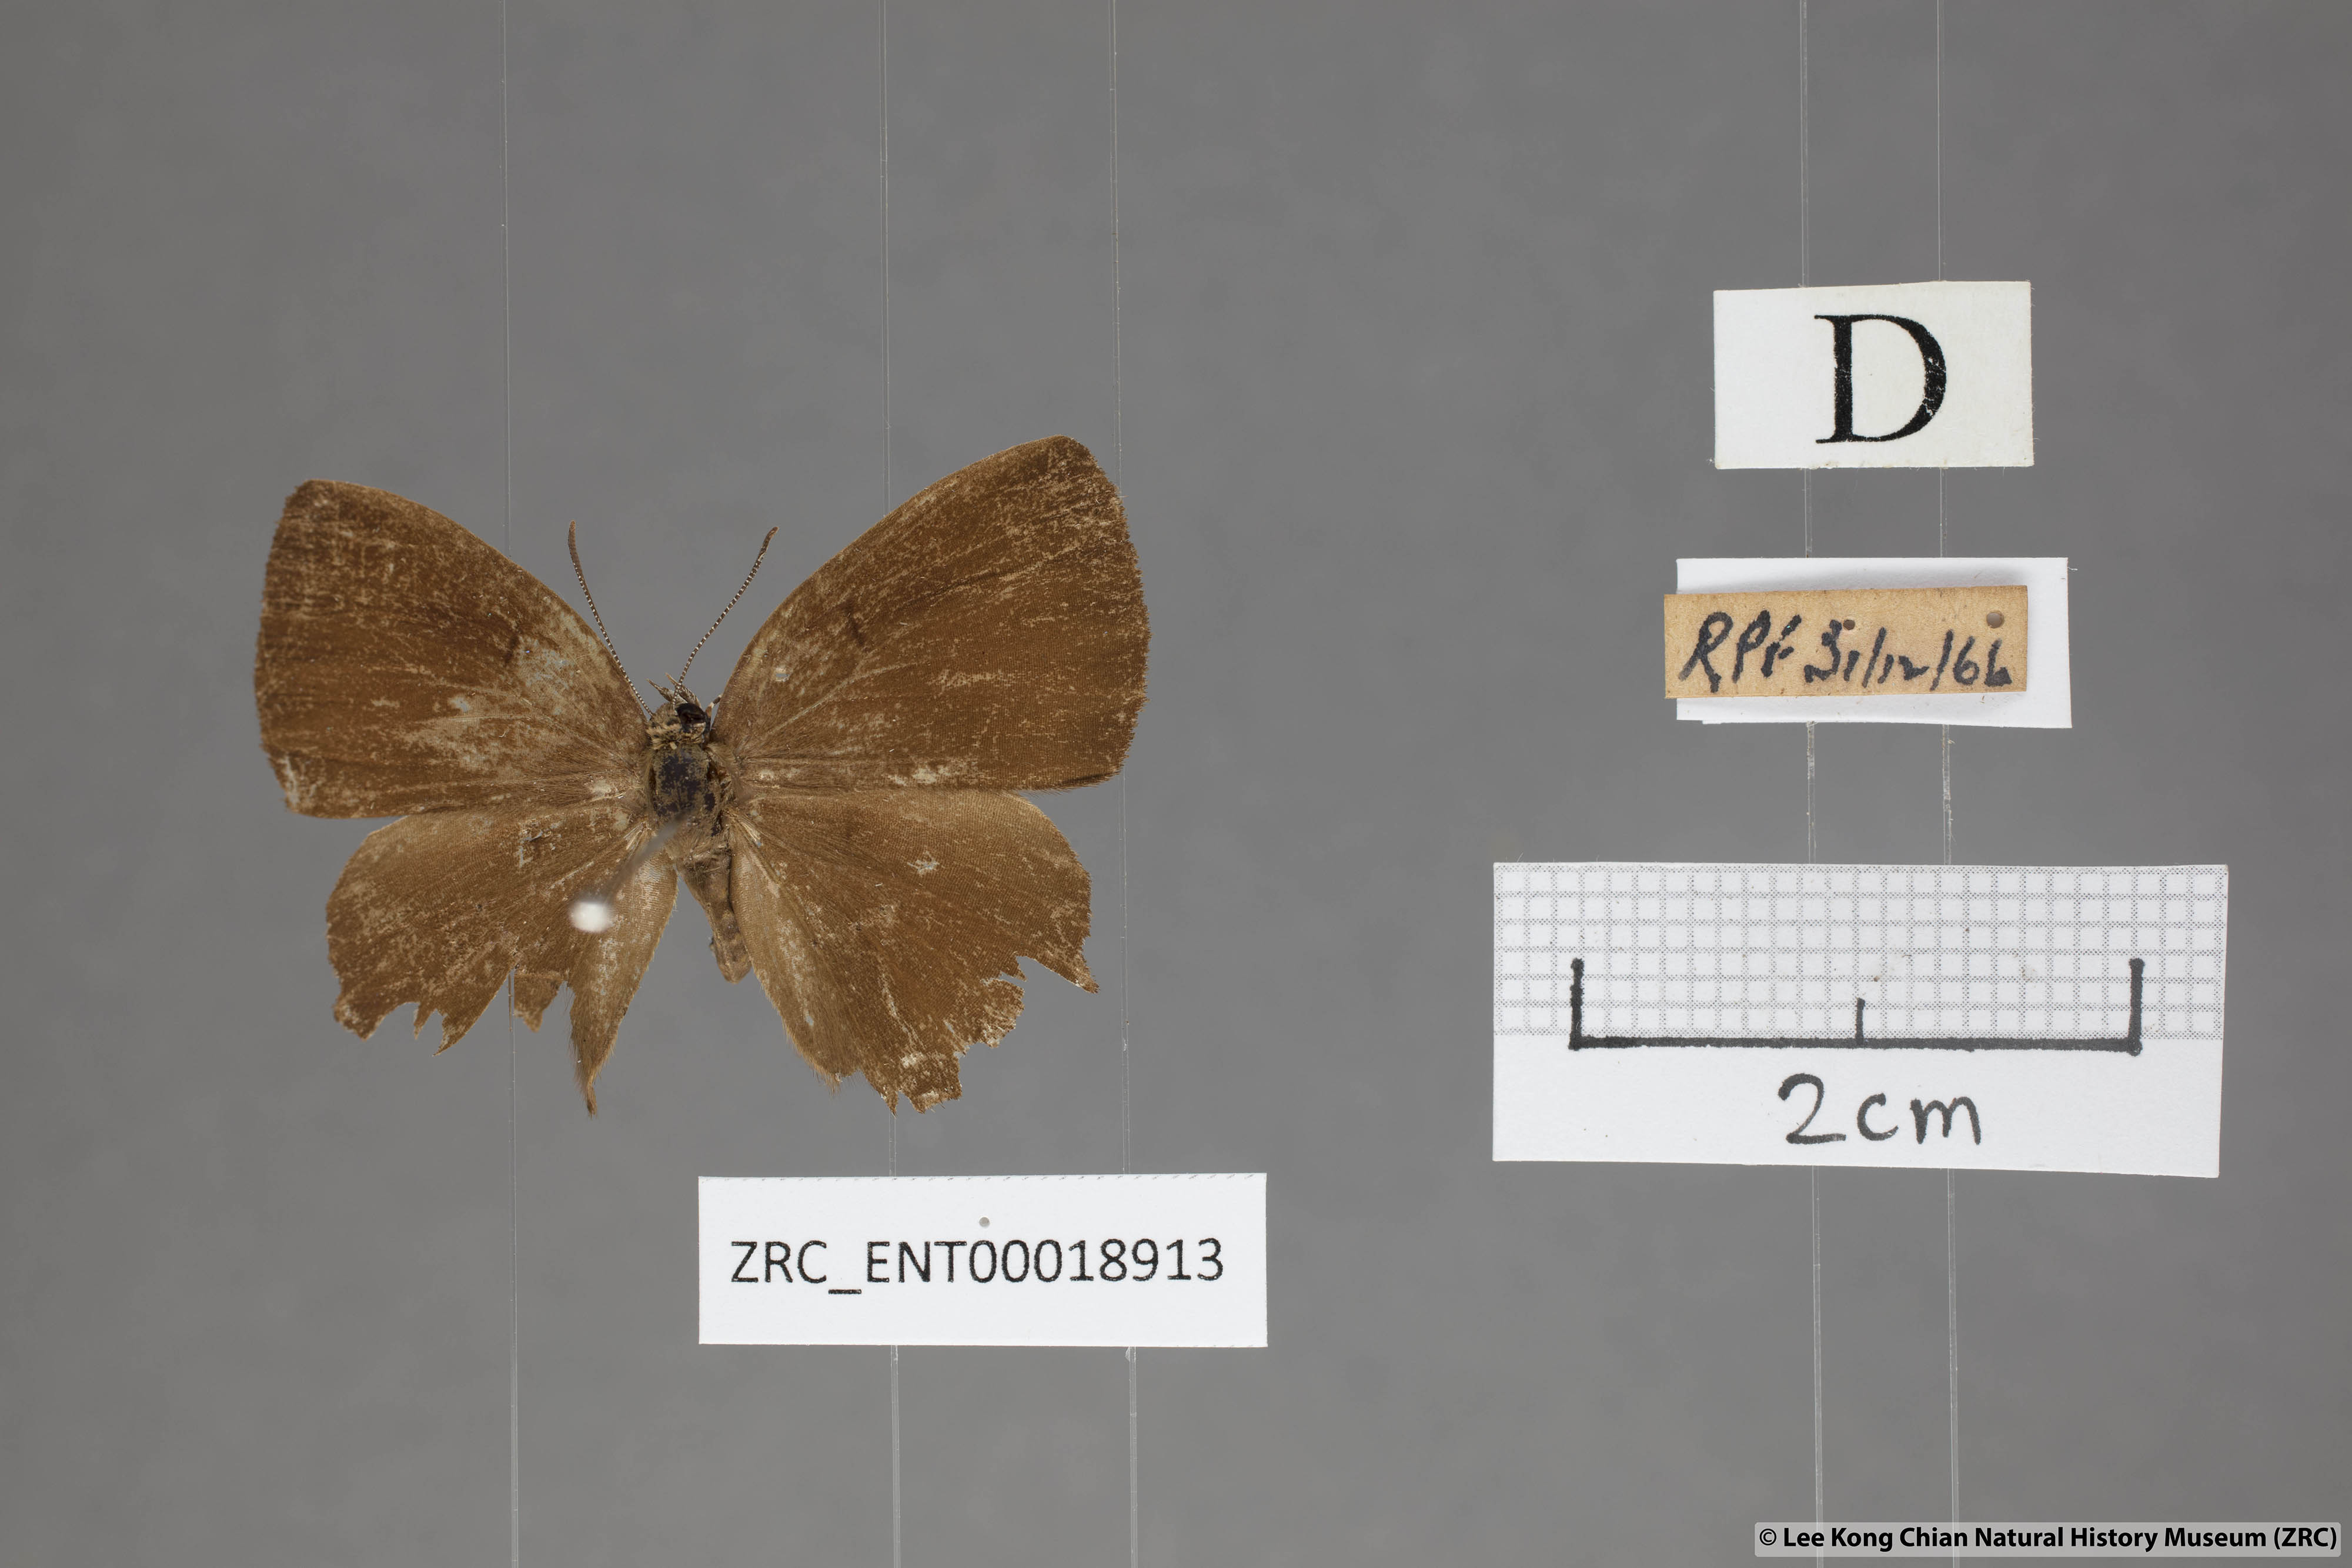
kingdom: Animalia
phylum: Arthropoda
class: Insecta
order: Lepidoptera
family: Lycaenidae
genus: Simiskina
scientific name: Simiskina
